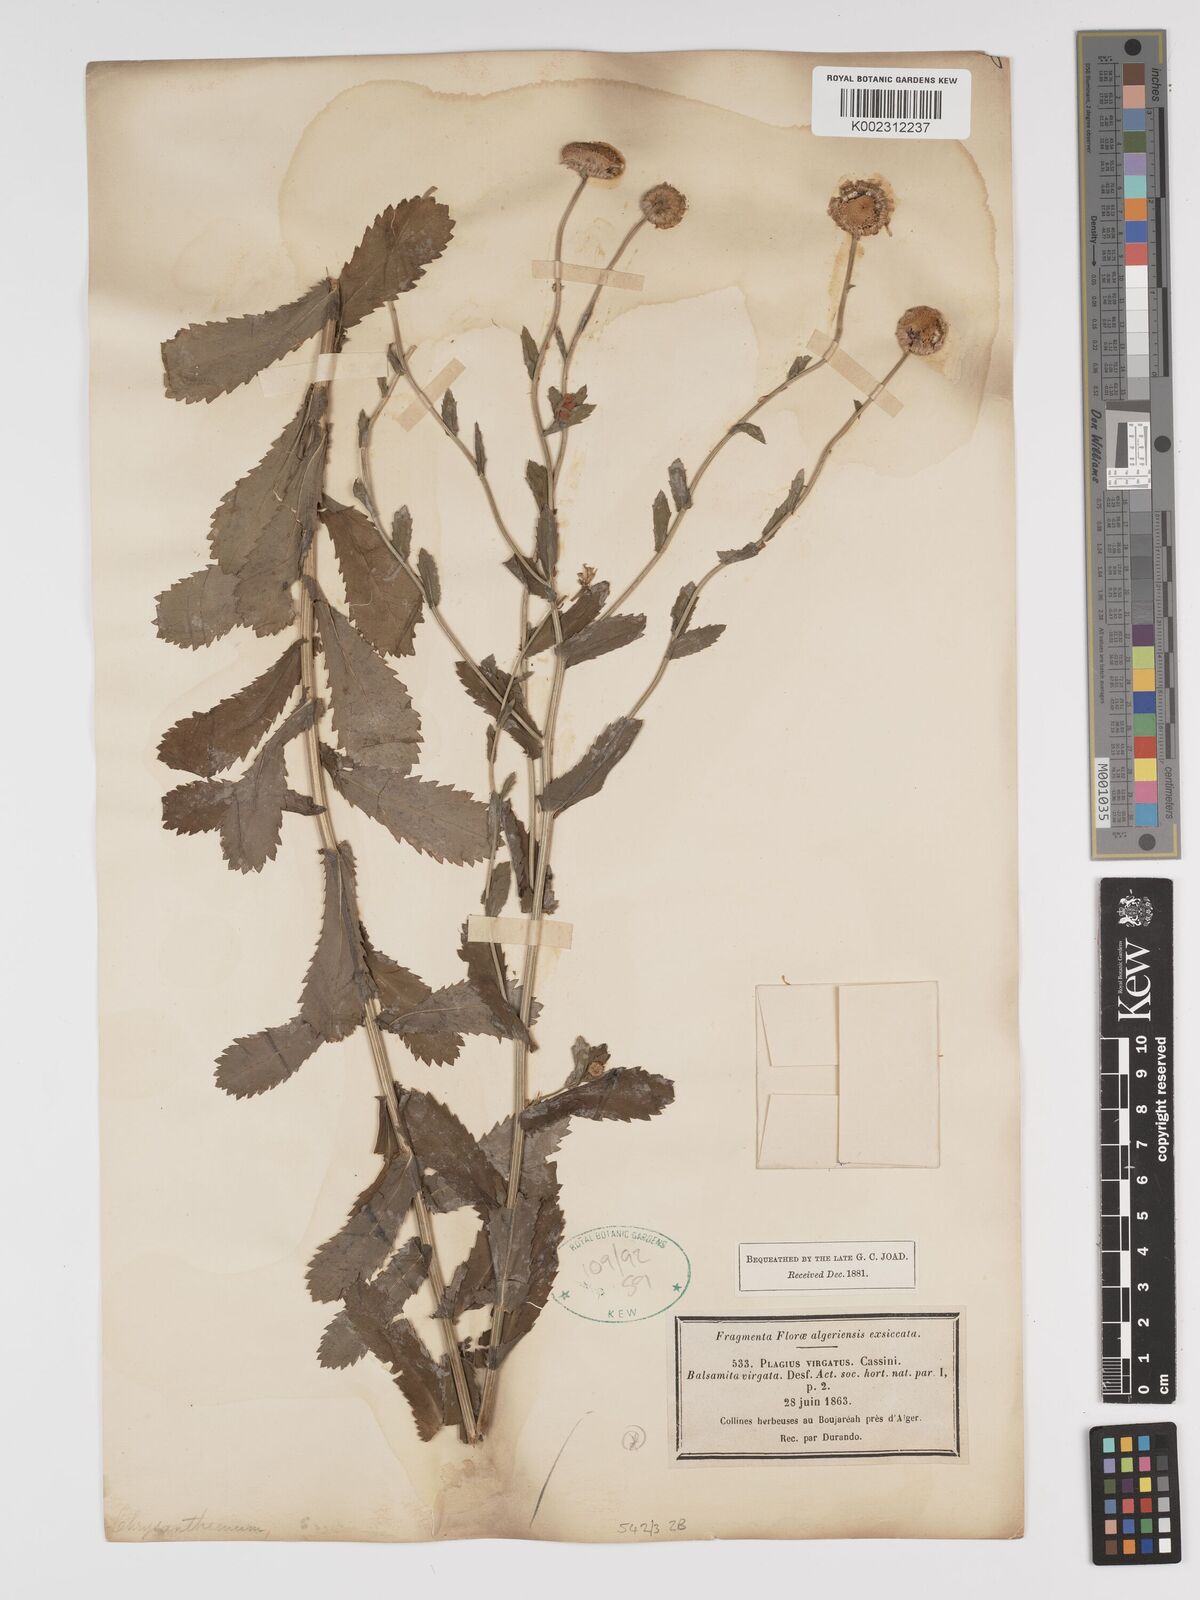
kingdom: Plantae
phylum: Tracheophyta
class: Magnoliopsida
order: Asterales
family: Asteraceae
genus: Tanacetum
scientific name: Tanacetum vulgare
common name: Common tansy
